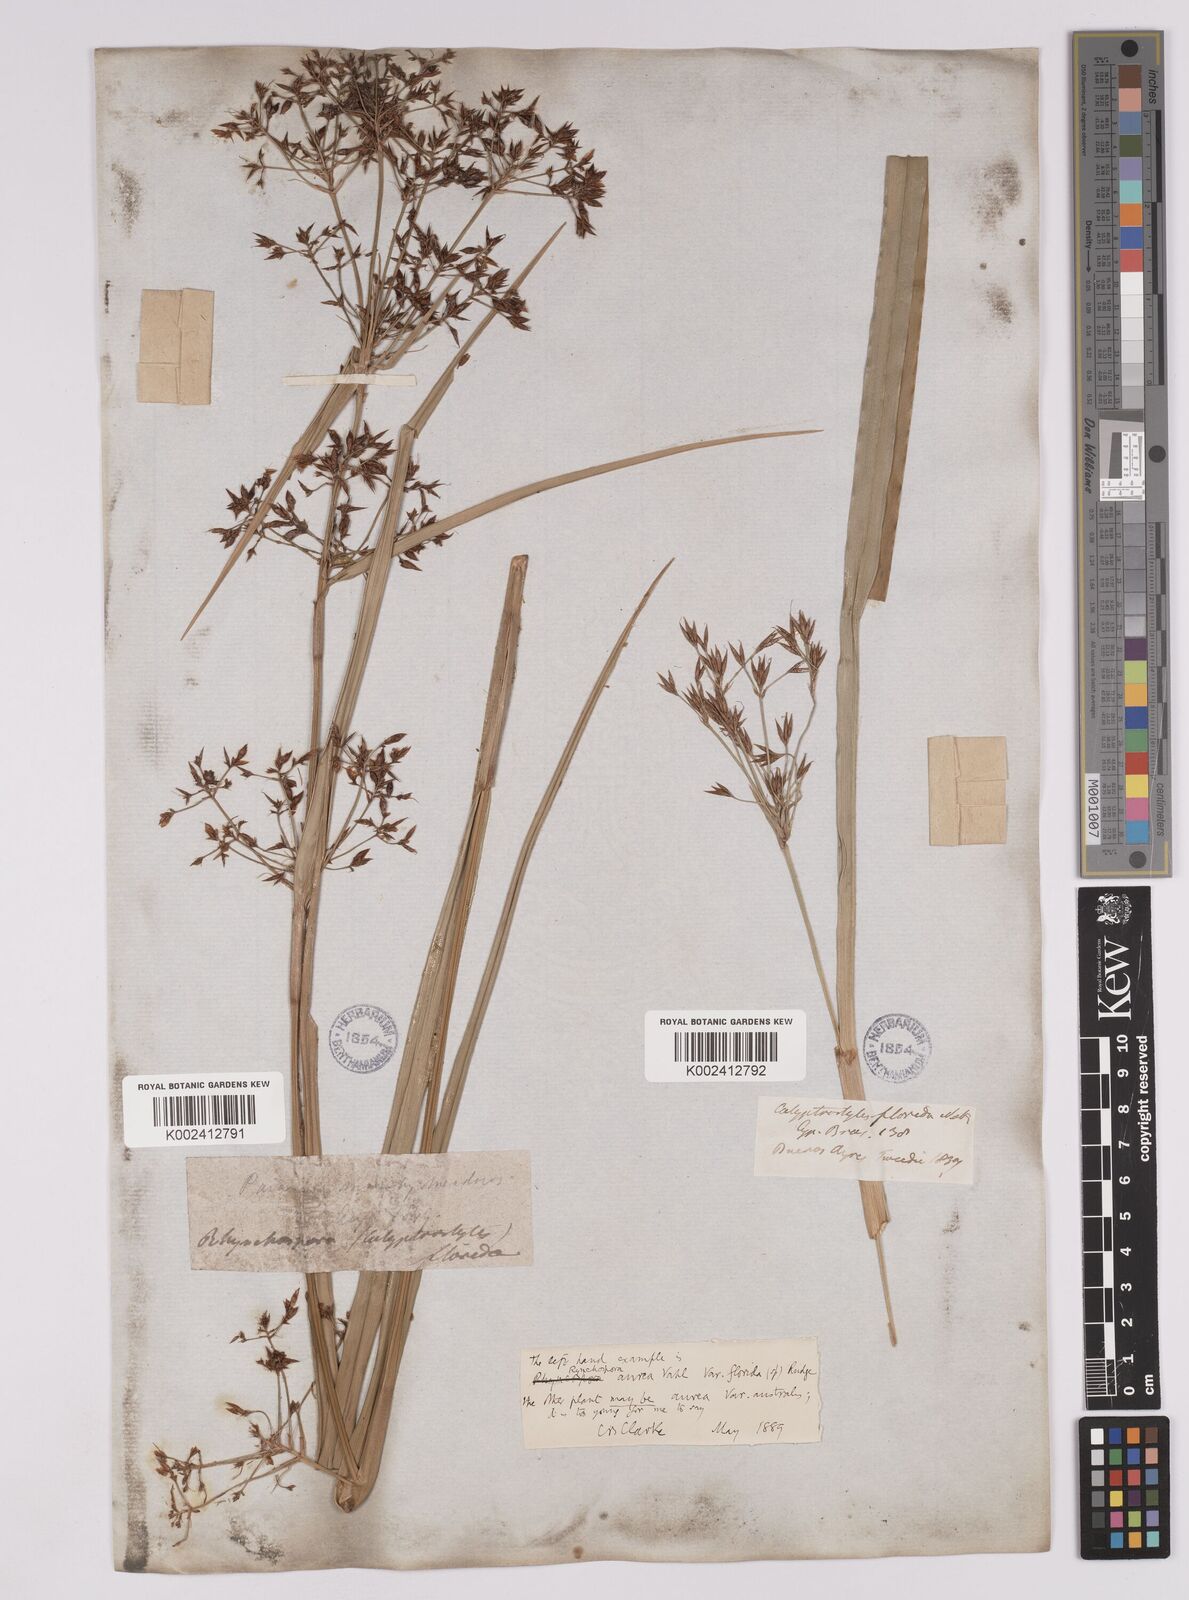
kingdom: Plantae
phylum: Tracheophyta
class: Liliopsida
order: Poales
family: Cyperaceae
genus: Rhynchospora
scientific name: Rhynchospora corymbosa
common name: Golden beak sedge
